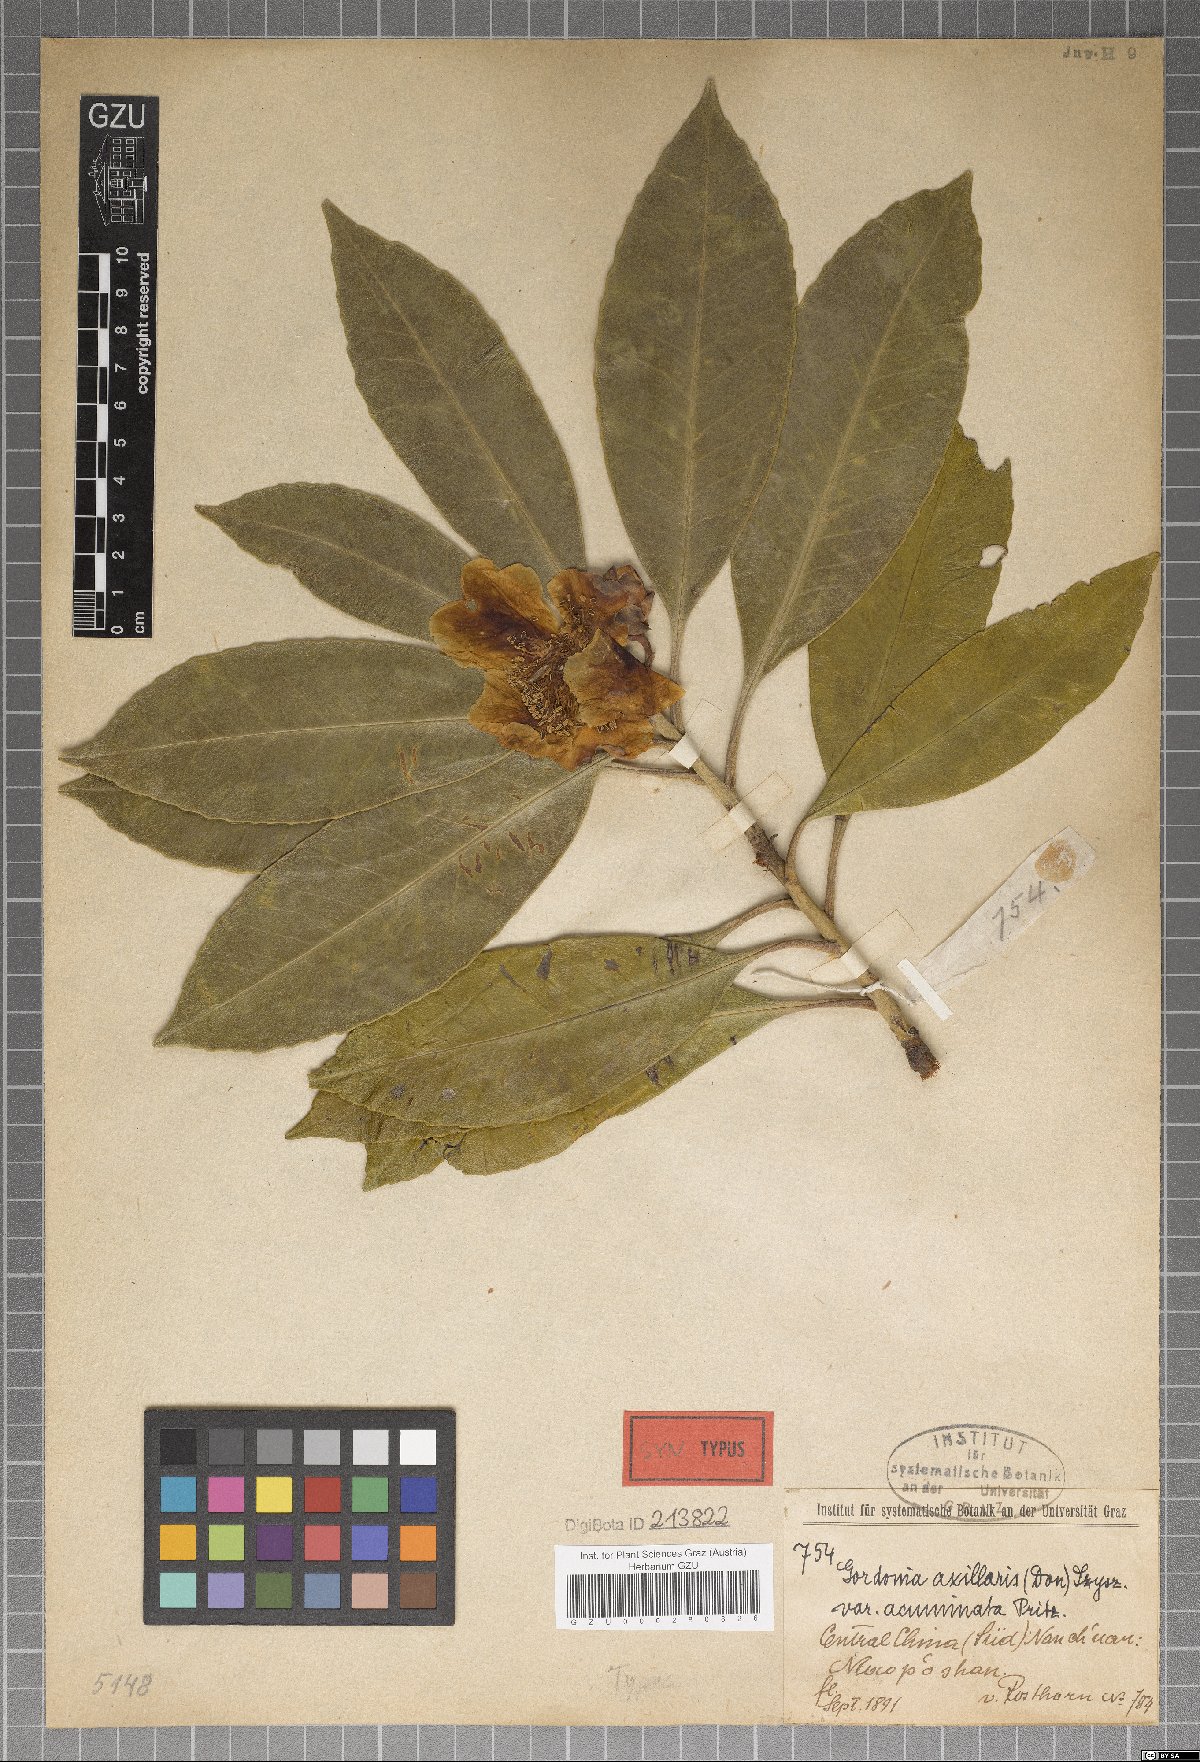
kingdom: Plantae
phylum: Tracheophyta
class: Magnoliopsida
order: Ericales
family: Theaceae
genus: Polyspora
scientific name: Polyspora speciosa
